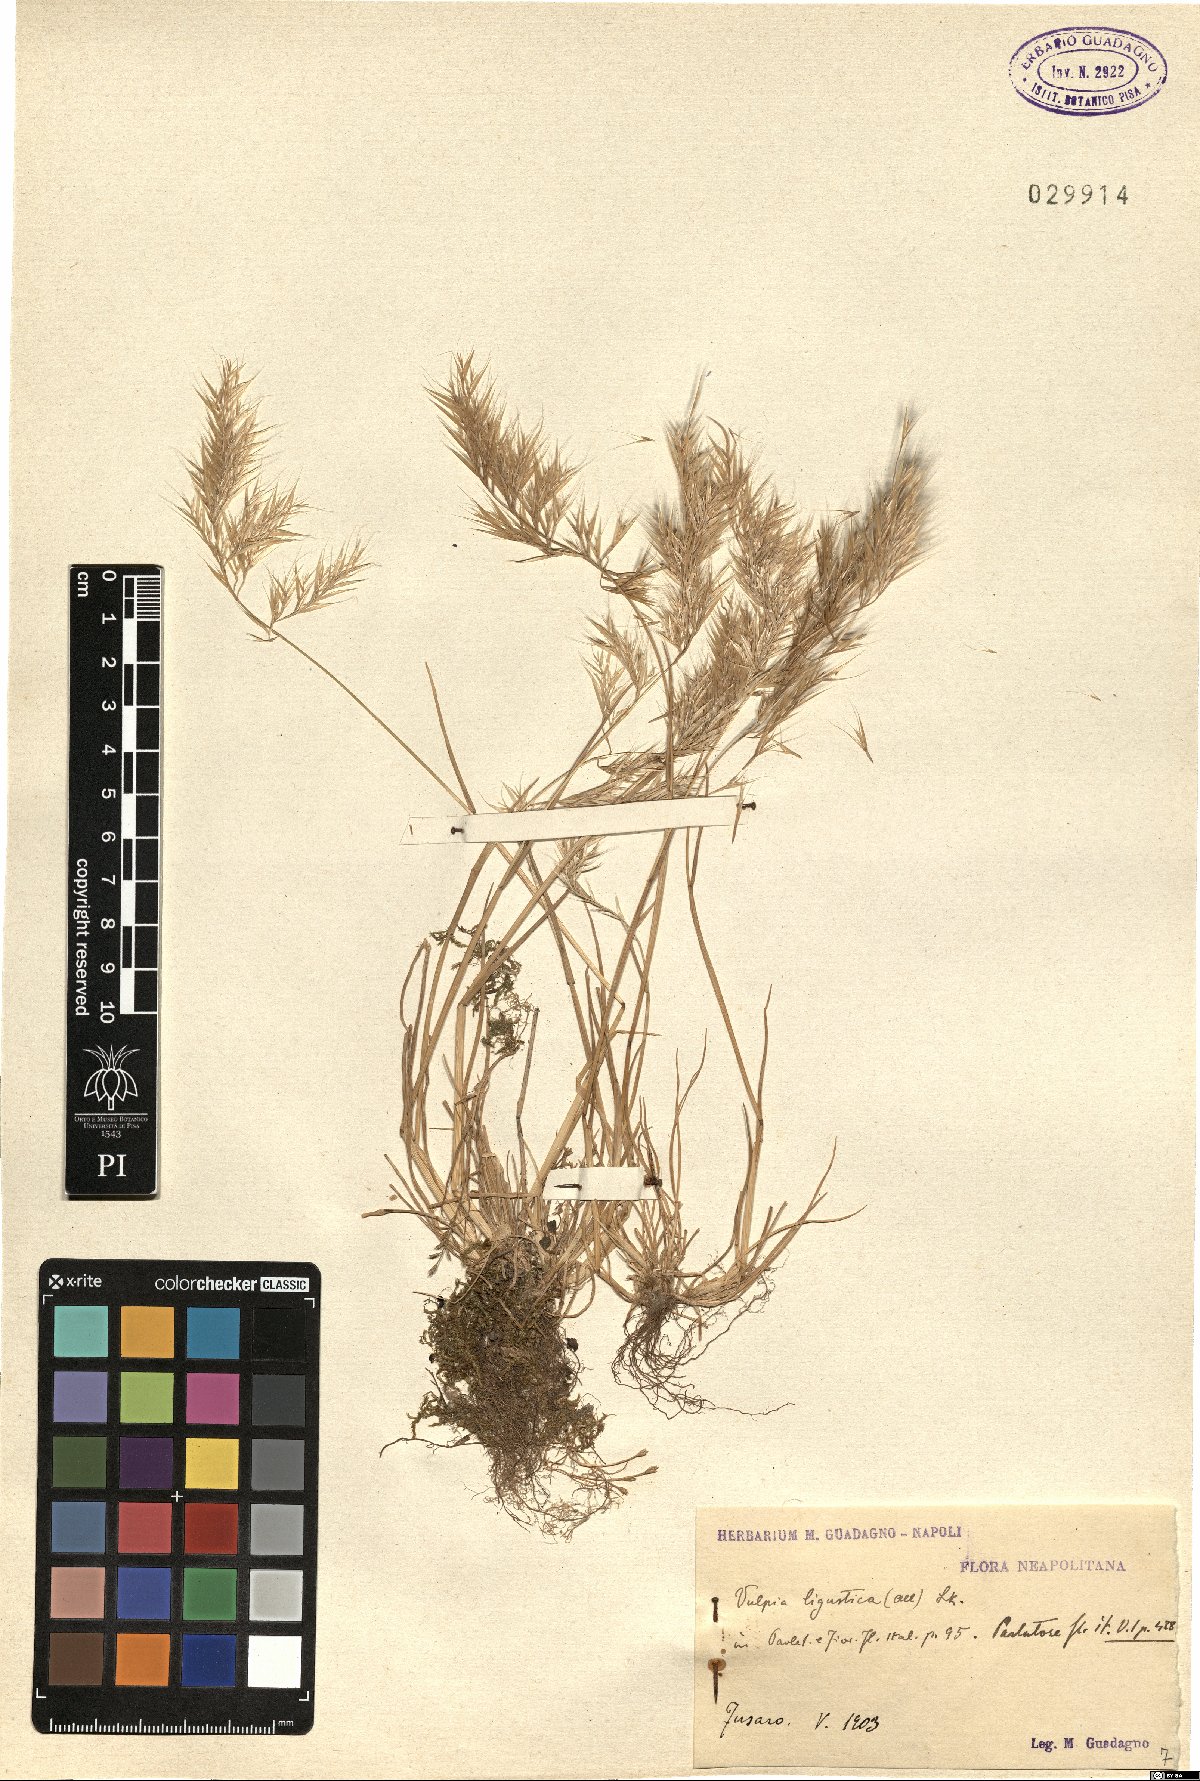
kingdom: Plantae
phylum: Tracheophyta
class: Liliopsida
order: Poales
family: Poaceae
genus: Festuca
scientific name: Festuca ligustica
